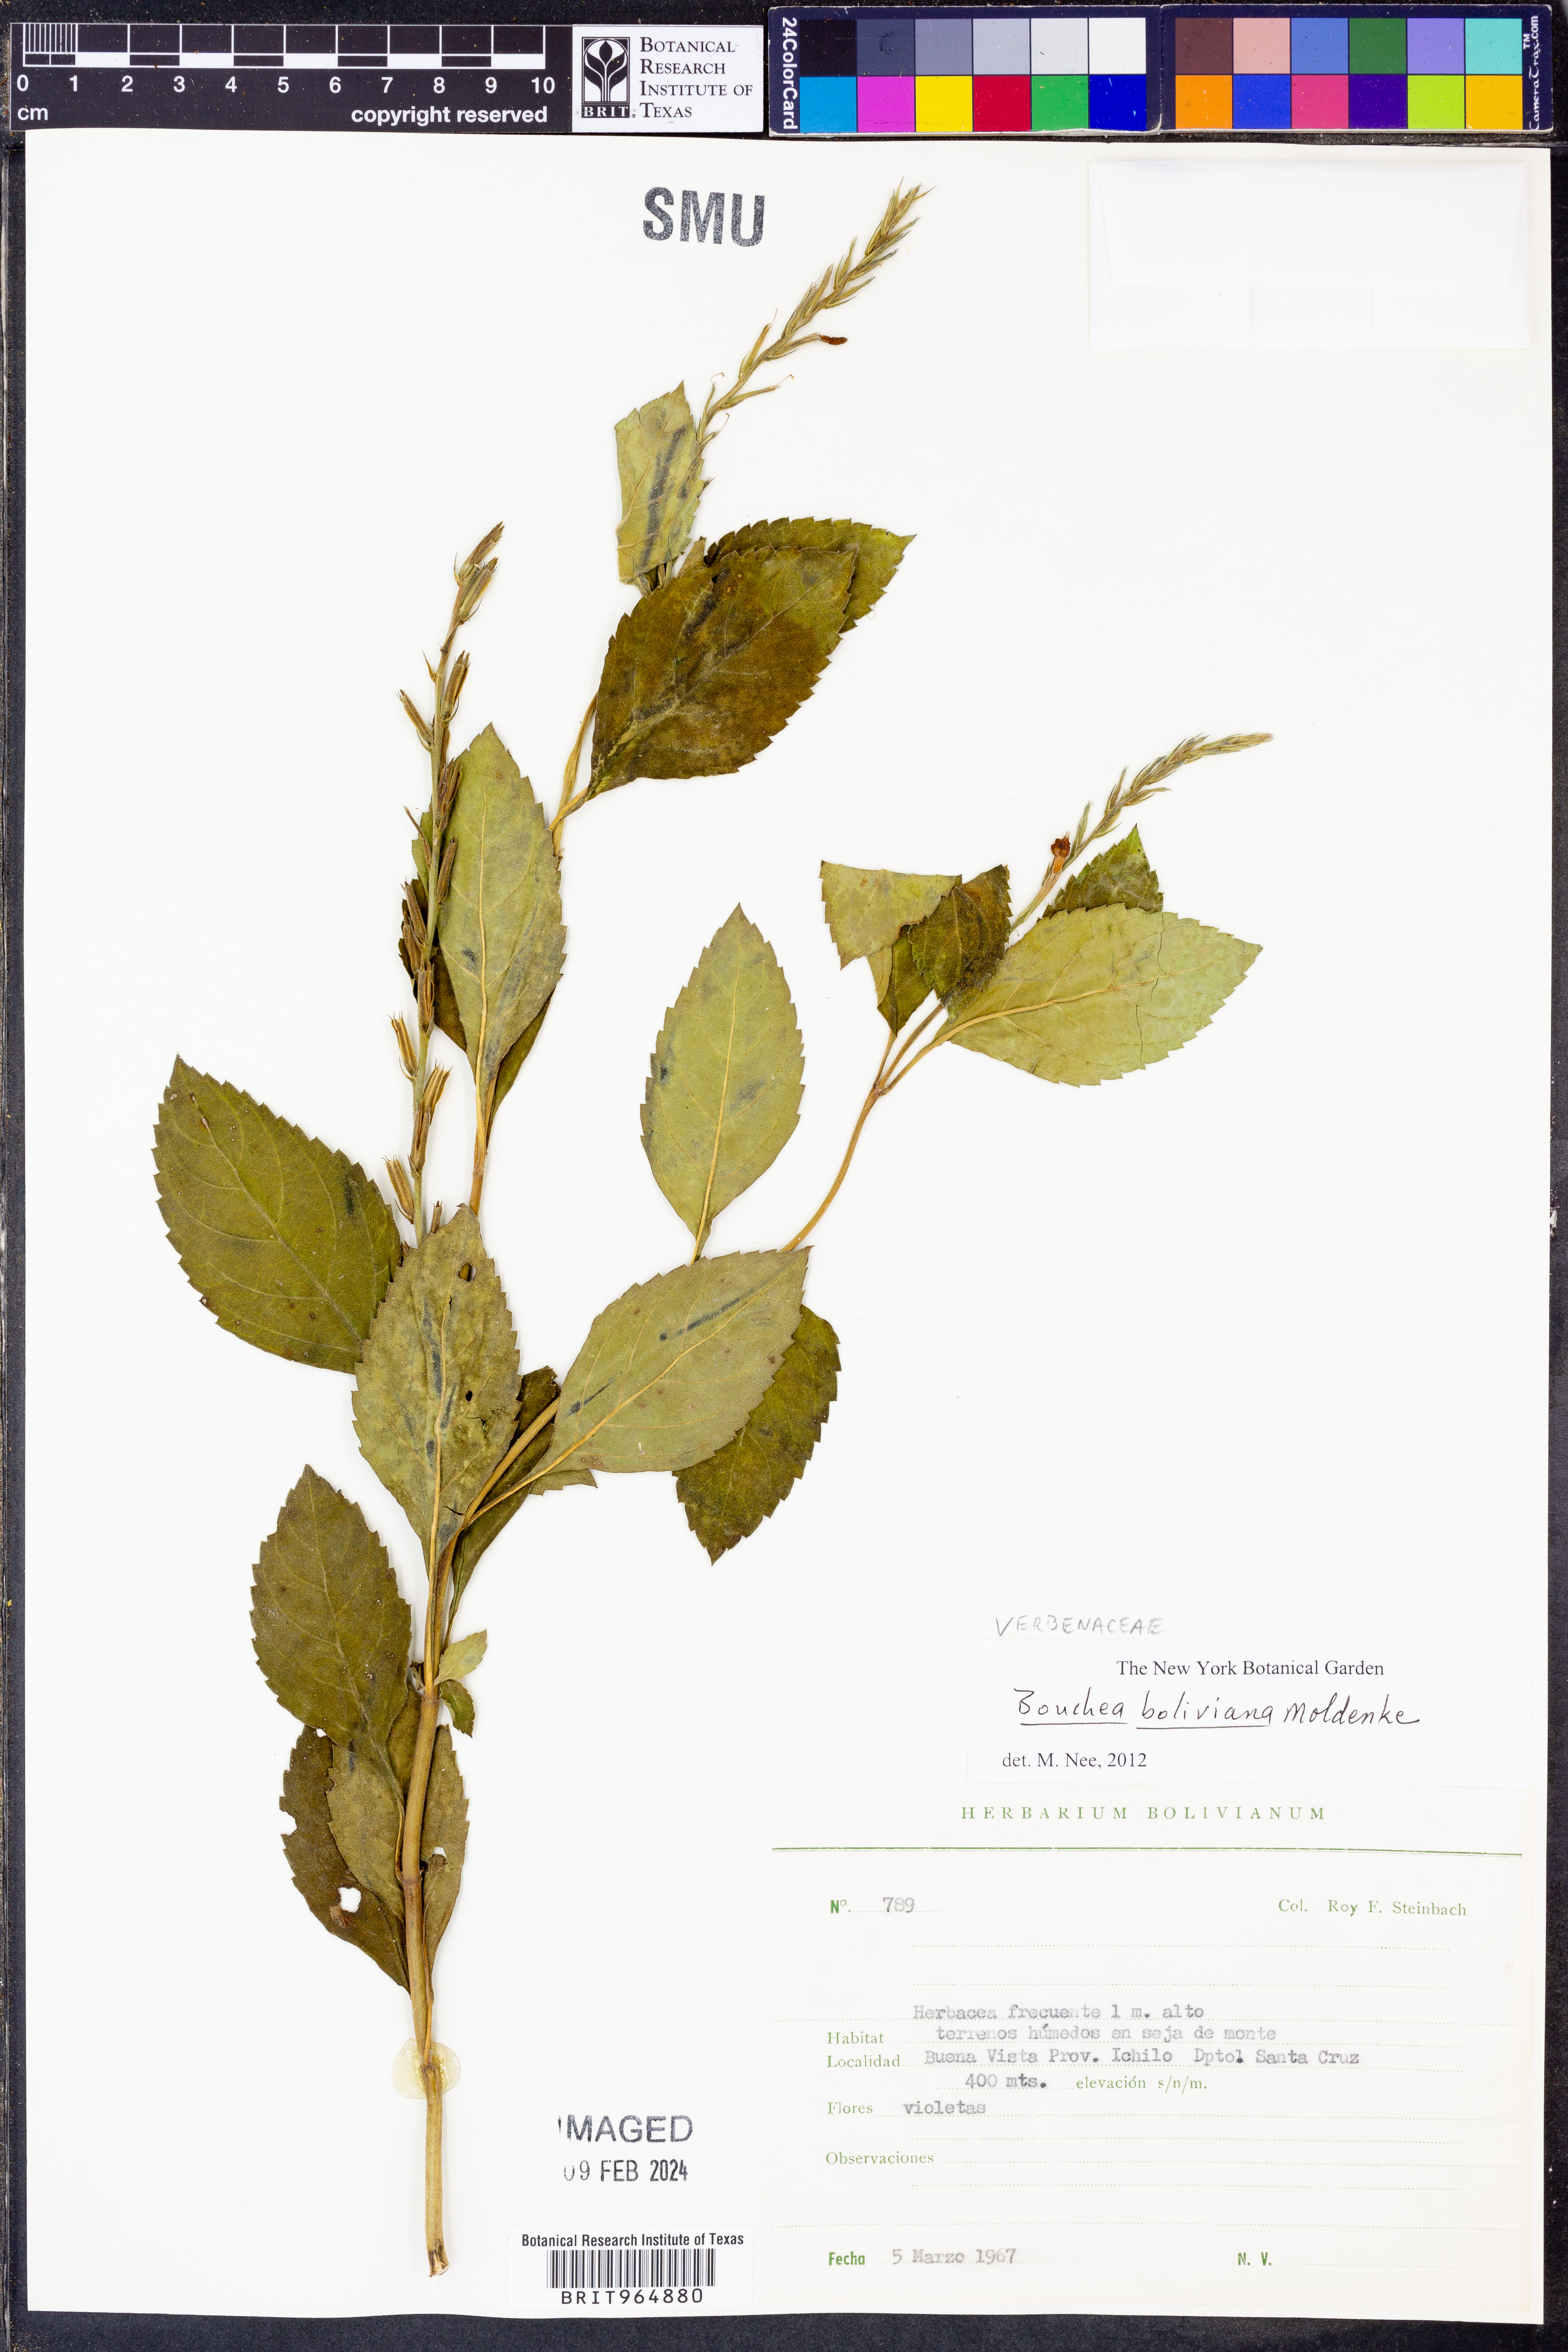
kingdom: Plantae
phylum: Tracheophyta
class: Magnoliopsida
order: Lamiales
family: Verbenaceae
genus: Bouchea
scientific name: Bouchea
